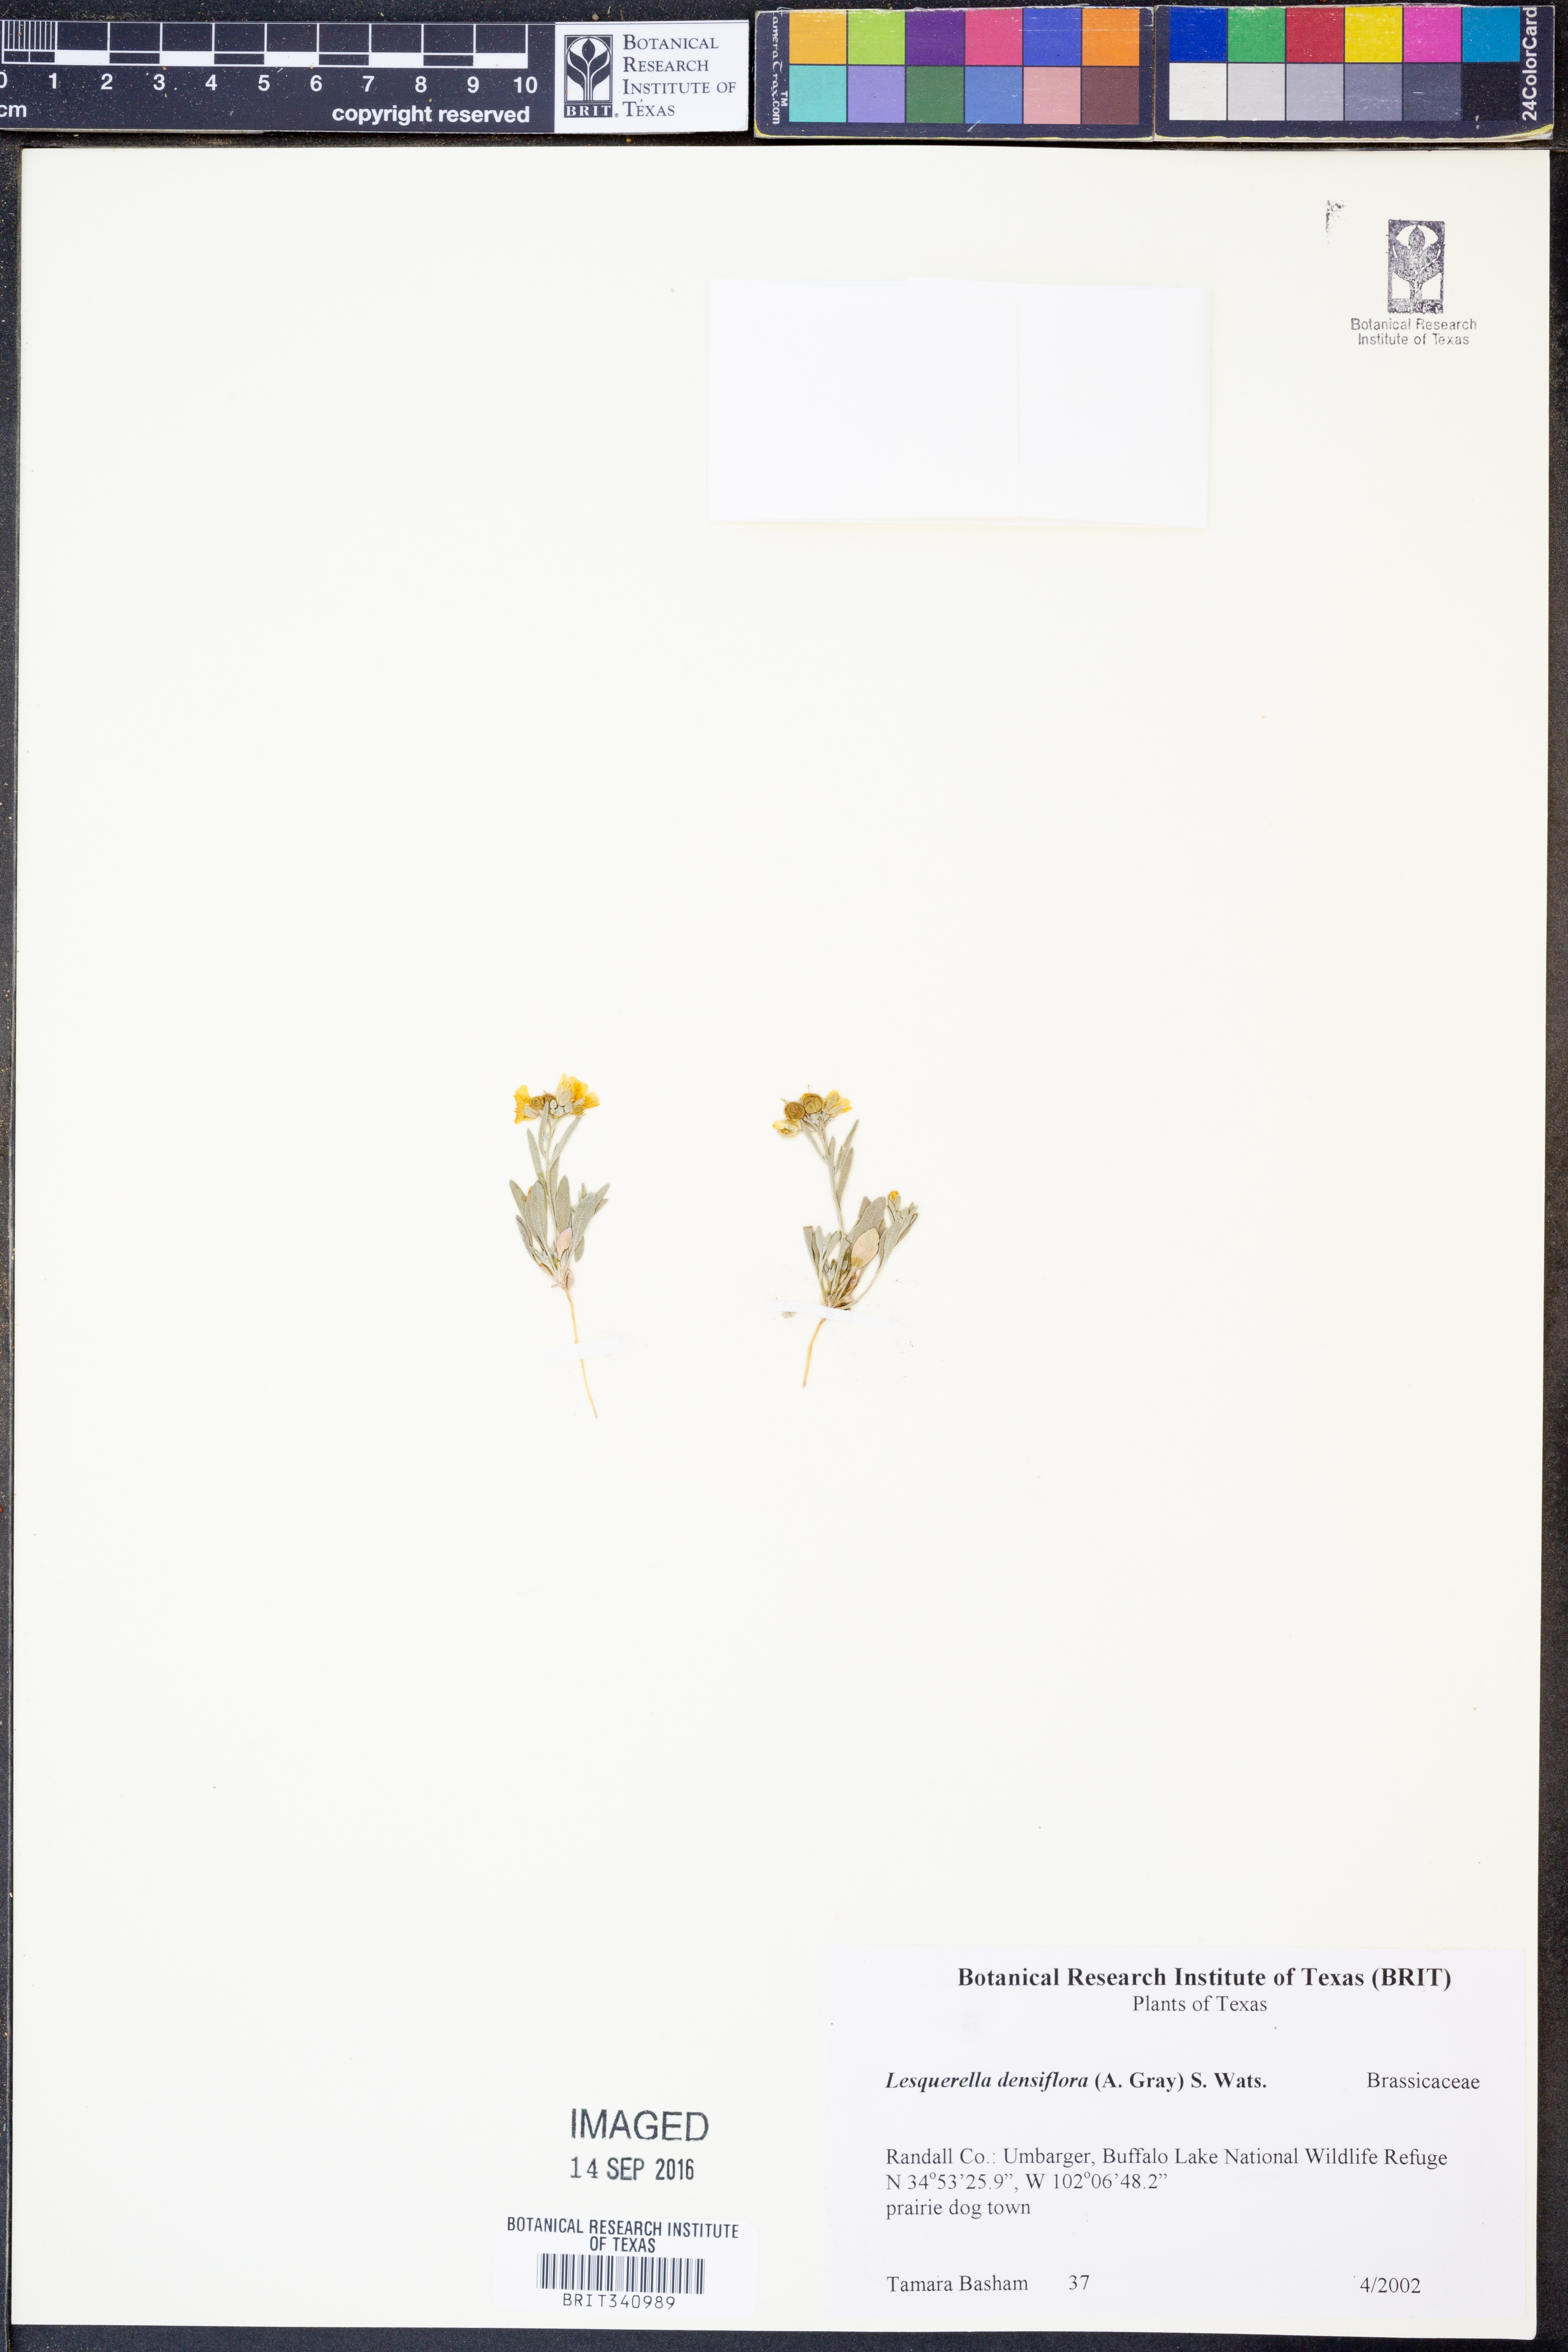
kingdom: Plantae
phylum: Tracheophyta
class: Magnoliopsida
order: Brassicales
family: Brassicaceae
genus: Physaria
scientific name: Physaria densiflora
